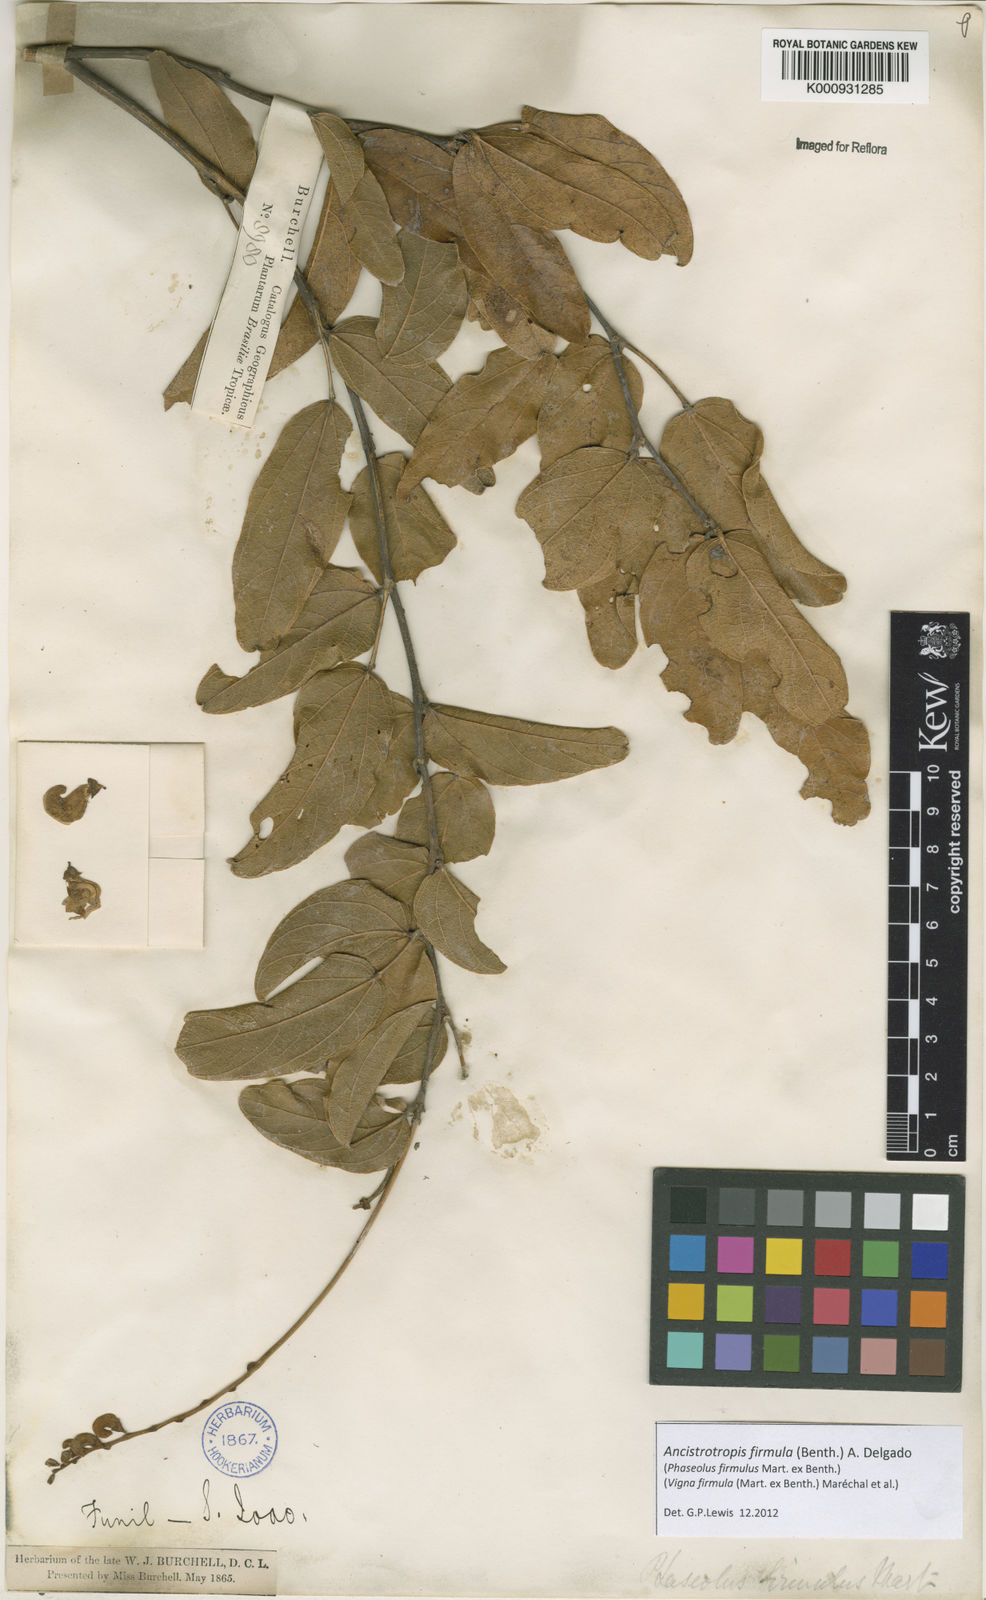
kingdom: Plantae
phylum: Tracheophyta
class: Magnoliopsida
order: Fabales
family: Fabaceae
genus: Ancistrotropis
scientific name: Ancistrotropis firmula
